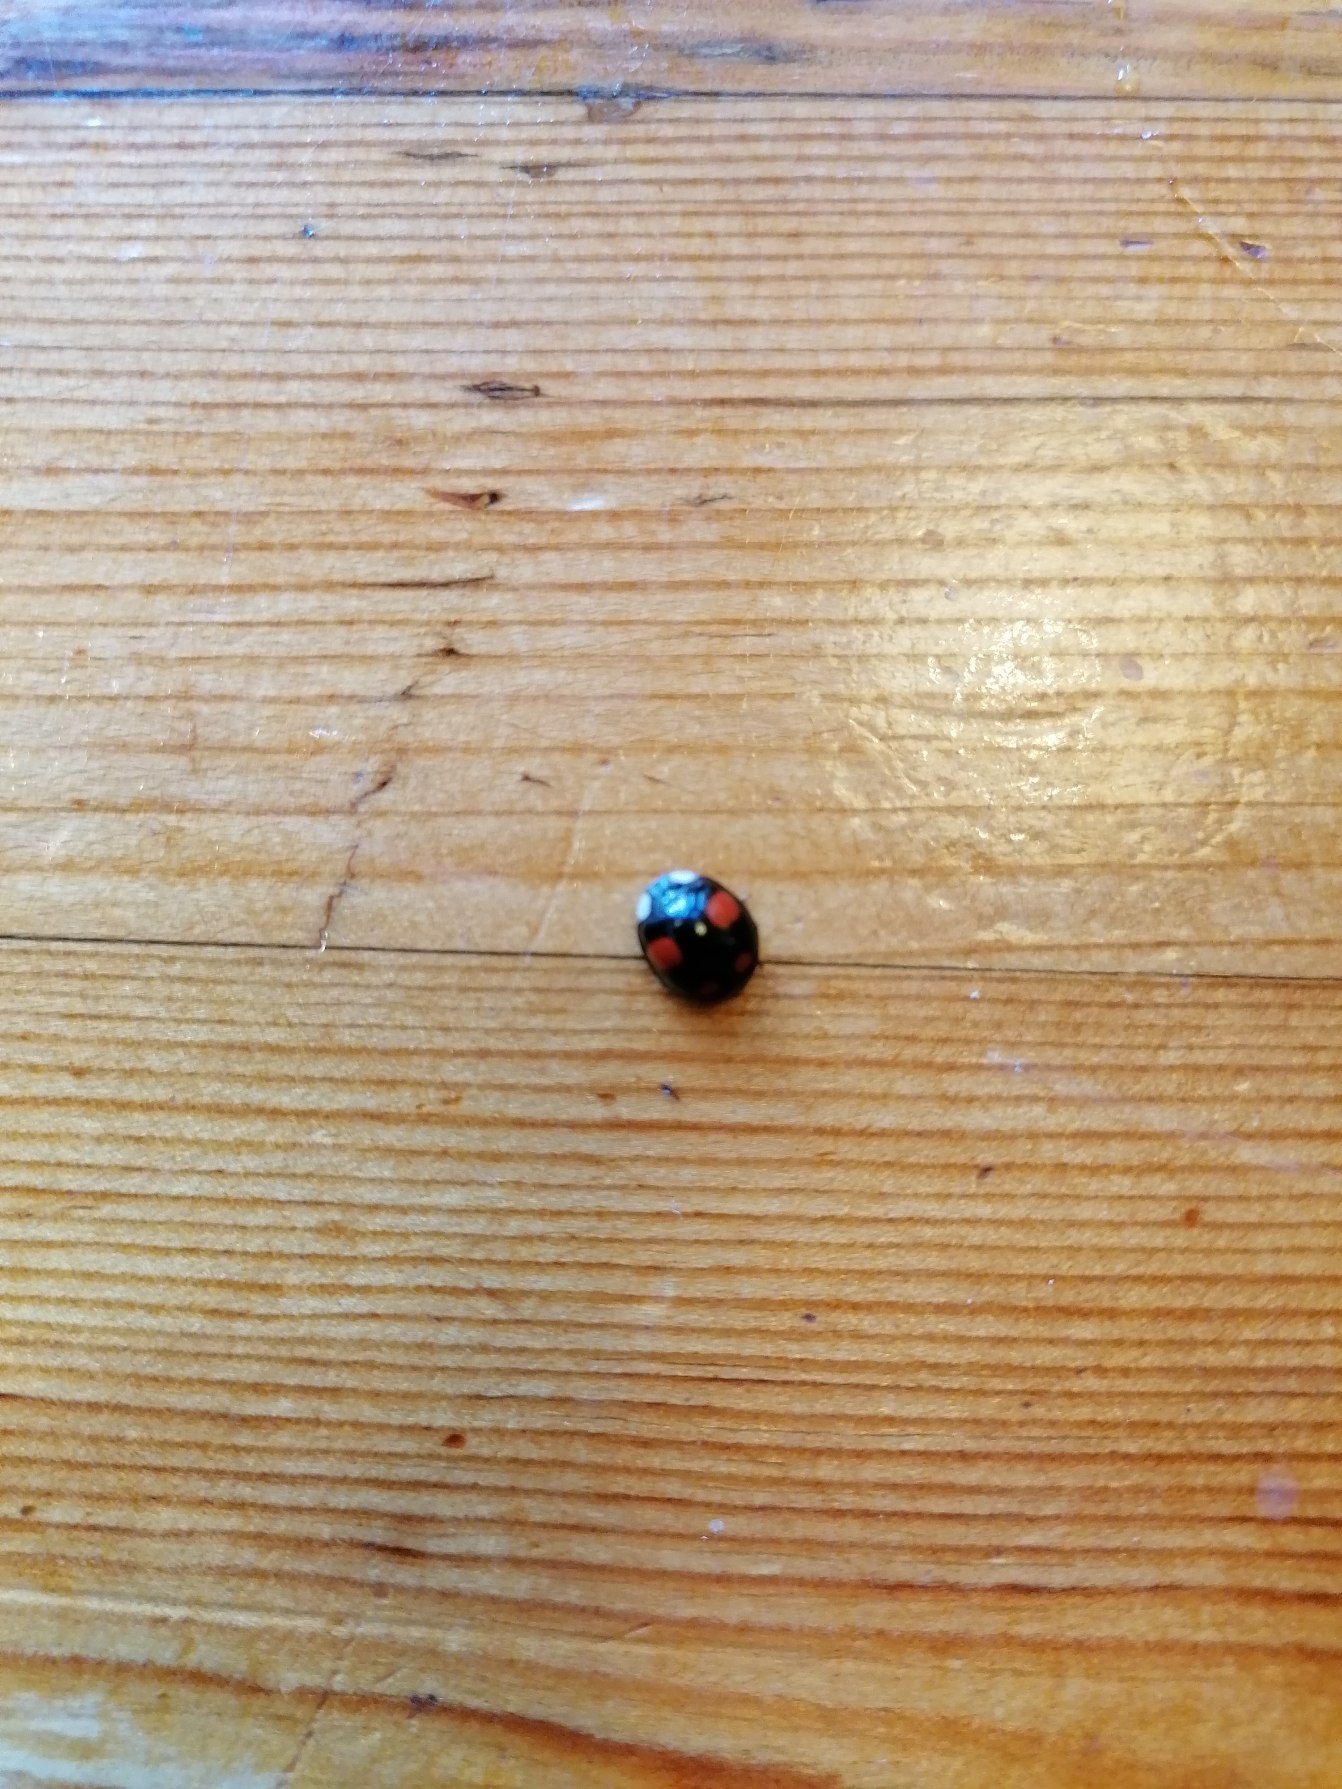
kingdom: Animalia
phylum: Arthropoda
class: Insecta
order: Coleoptera
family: Coccinellidae
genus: Harmonia
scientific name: Harmonia axyridis
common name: Harlekinmariehøne
